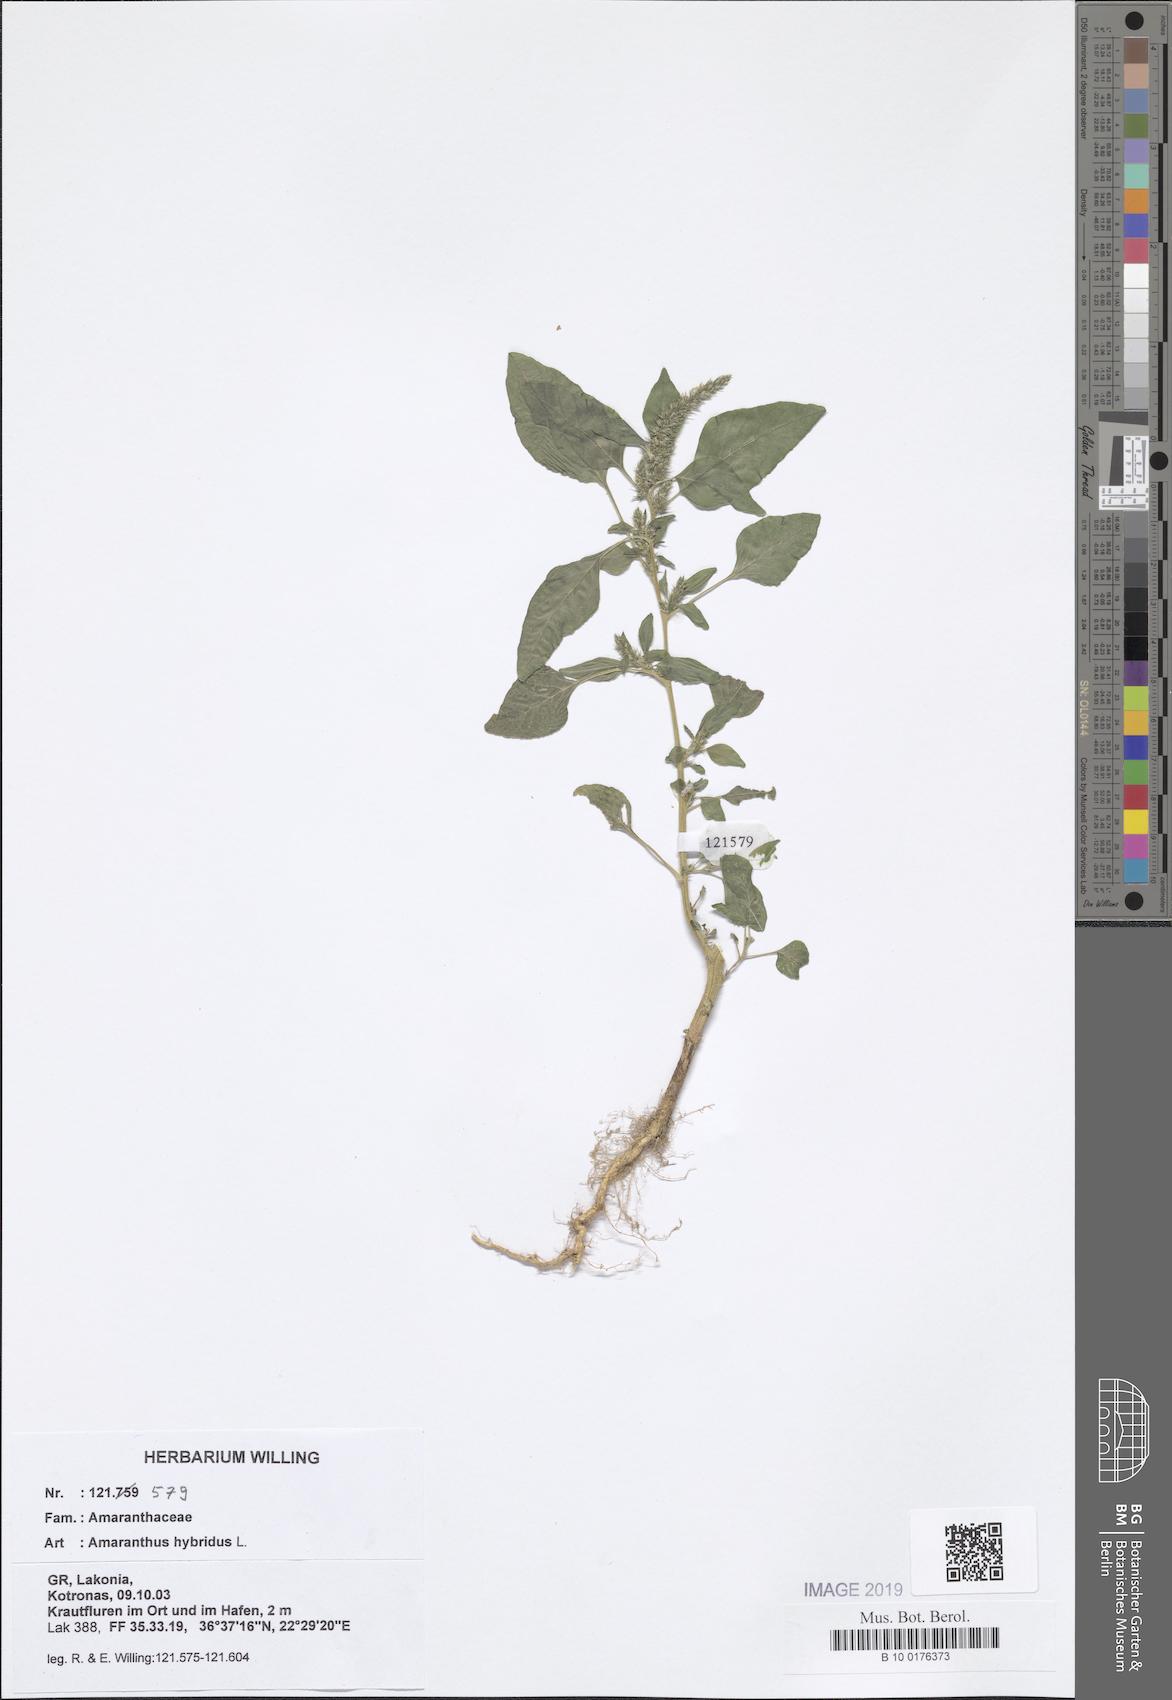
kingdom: Plantae
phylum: Tracheophyta
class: Magnoliopsida
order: Caryophyllales
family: Amaranthaceae
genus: Amaranthus
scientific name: Amaranthus hybridus
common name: Green amaranth
